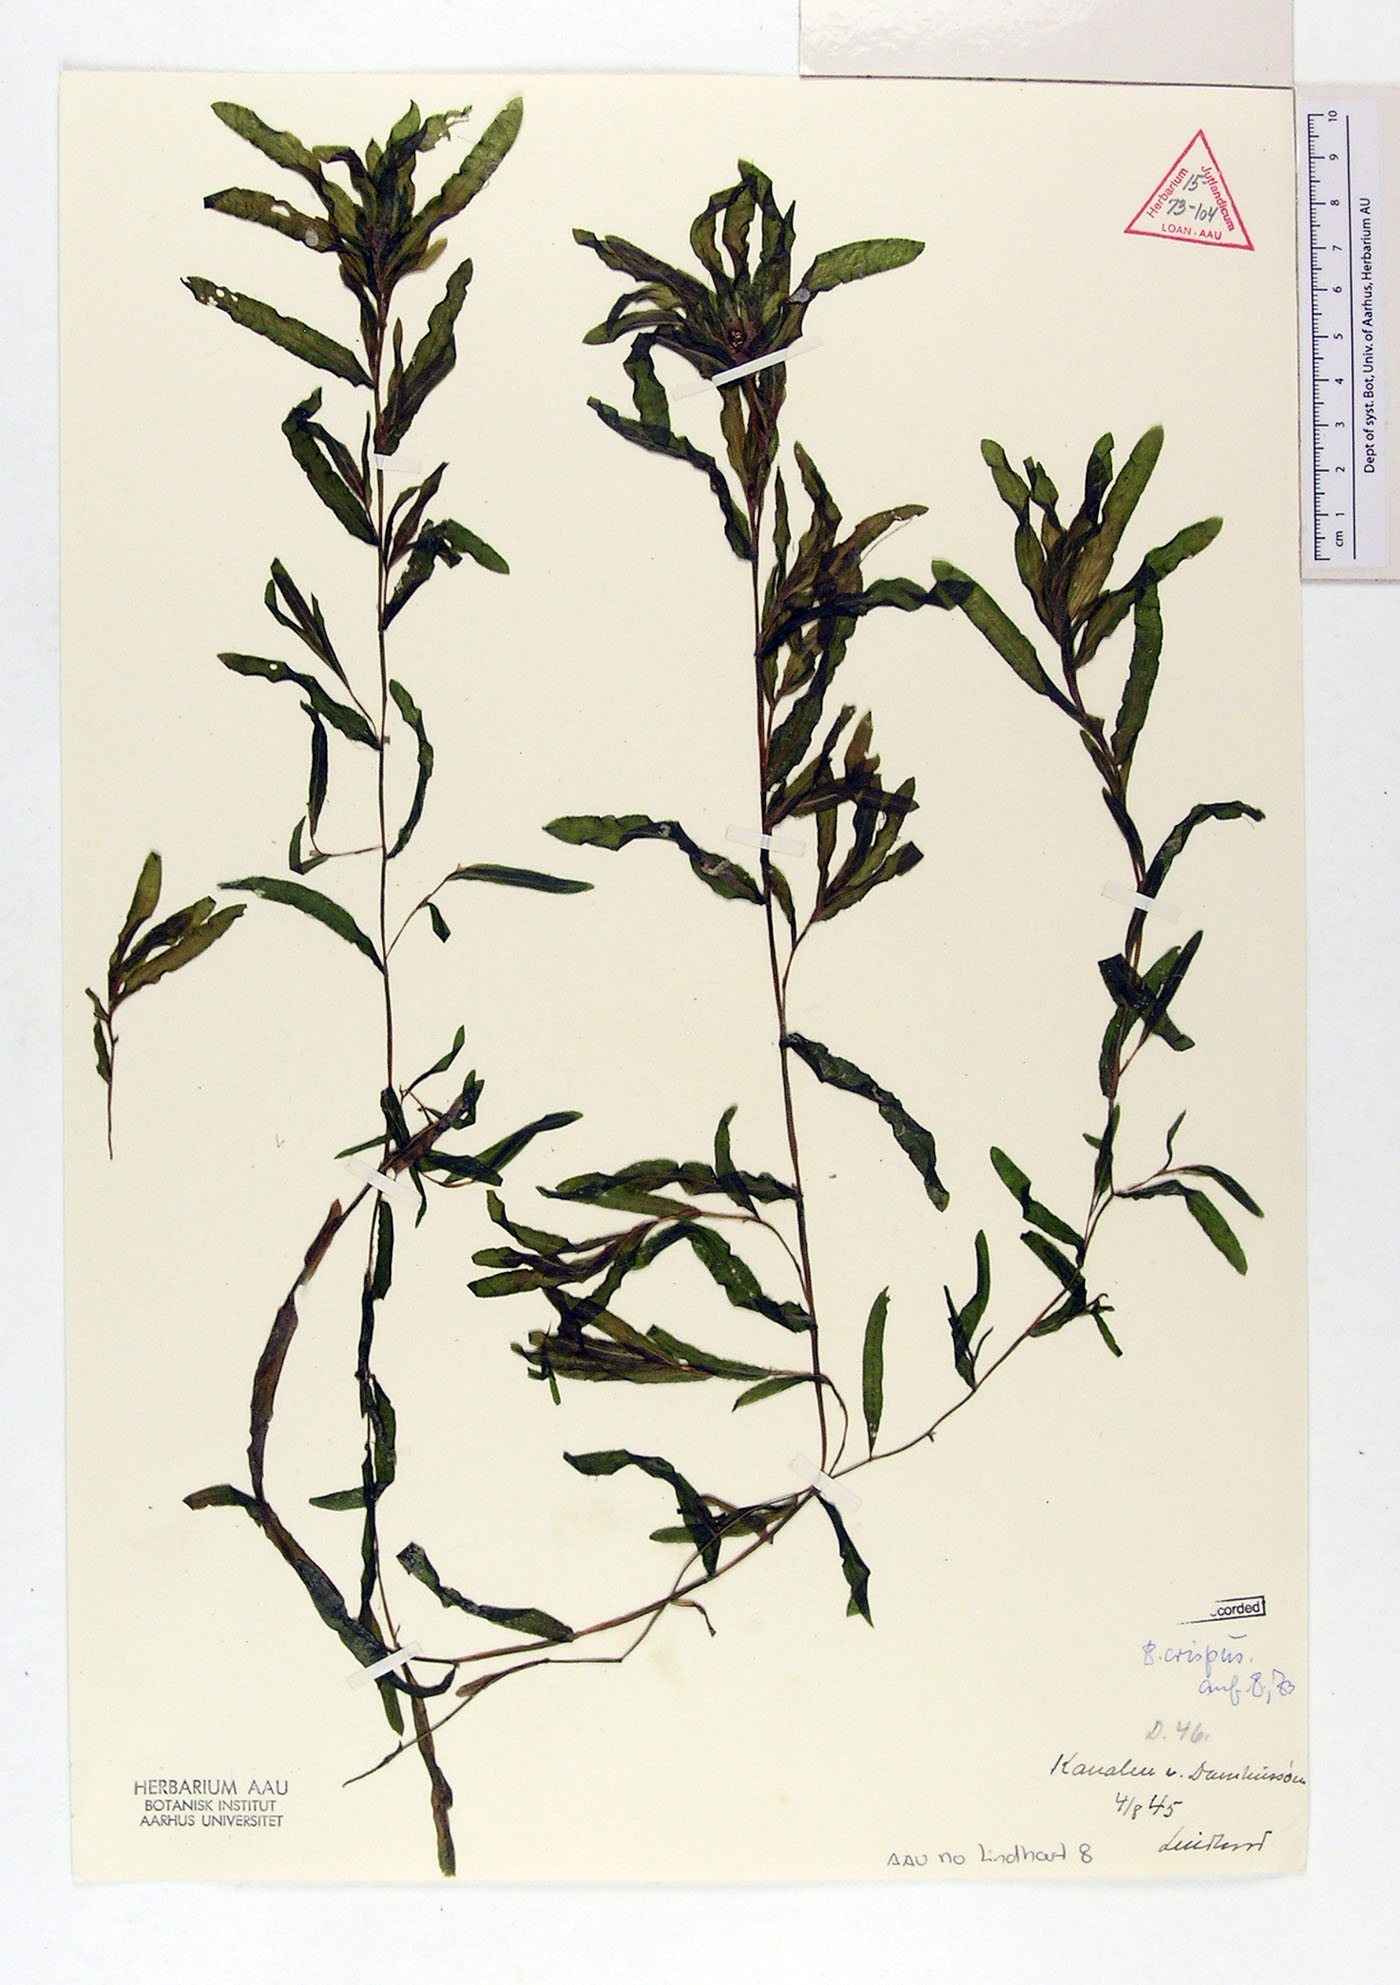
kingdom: Plantae
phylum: Tracheophyta
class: Liliopsida
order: Alismatales
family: Potamogetonaceae
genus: Potamogeton
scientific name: Potamogeton crispus
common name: Curled pondweed
